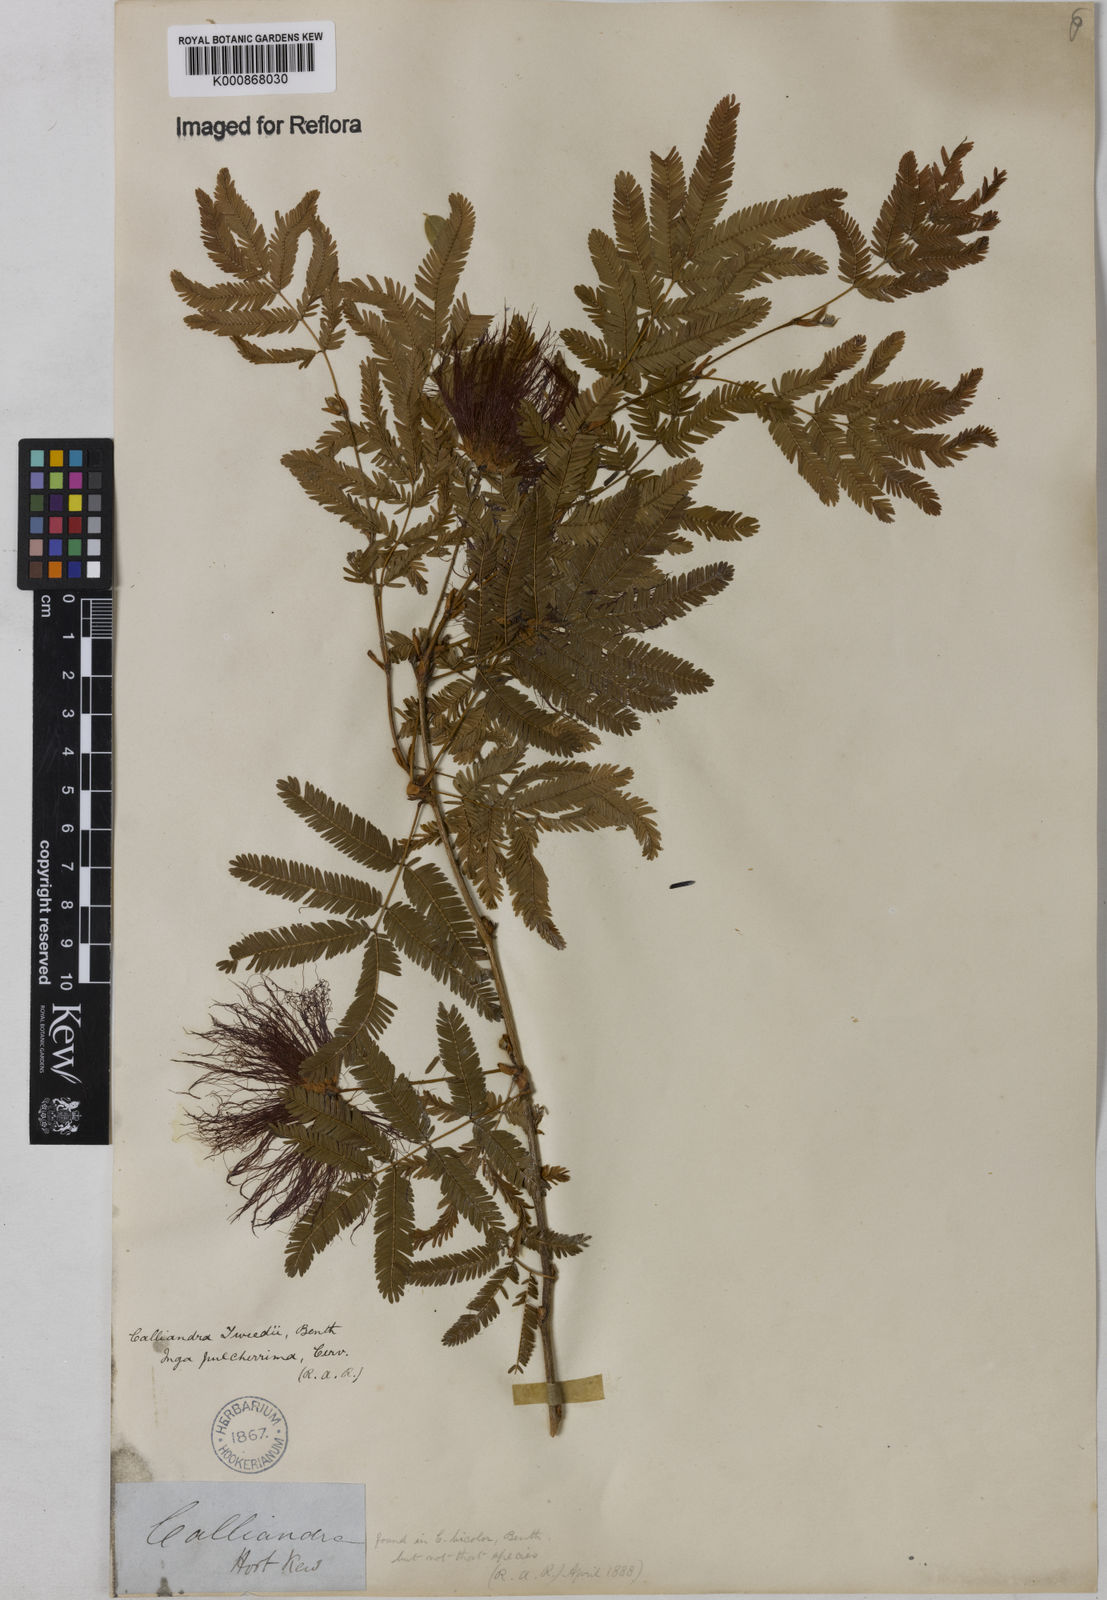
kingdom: Plantae
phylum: Tracheophyta
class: Magnoliopsida
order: Fabales
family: Fabaceae
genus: Calliandra
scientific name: Calliandra tweediei
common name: Mexican flamebush
